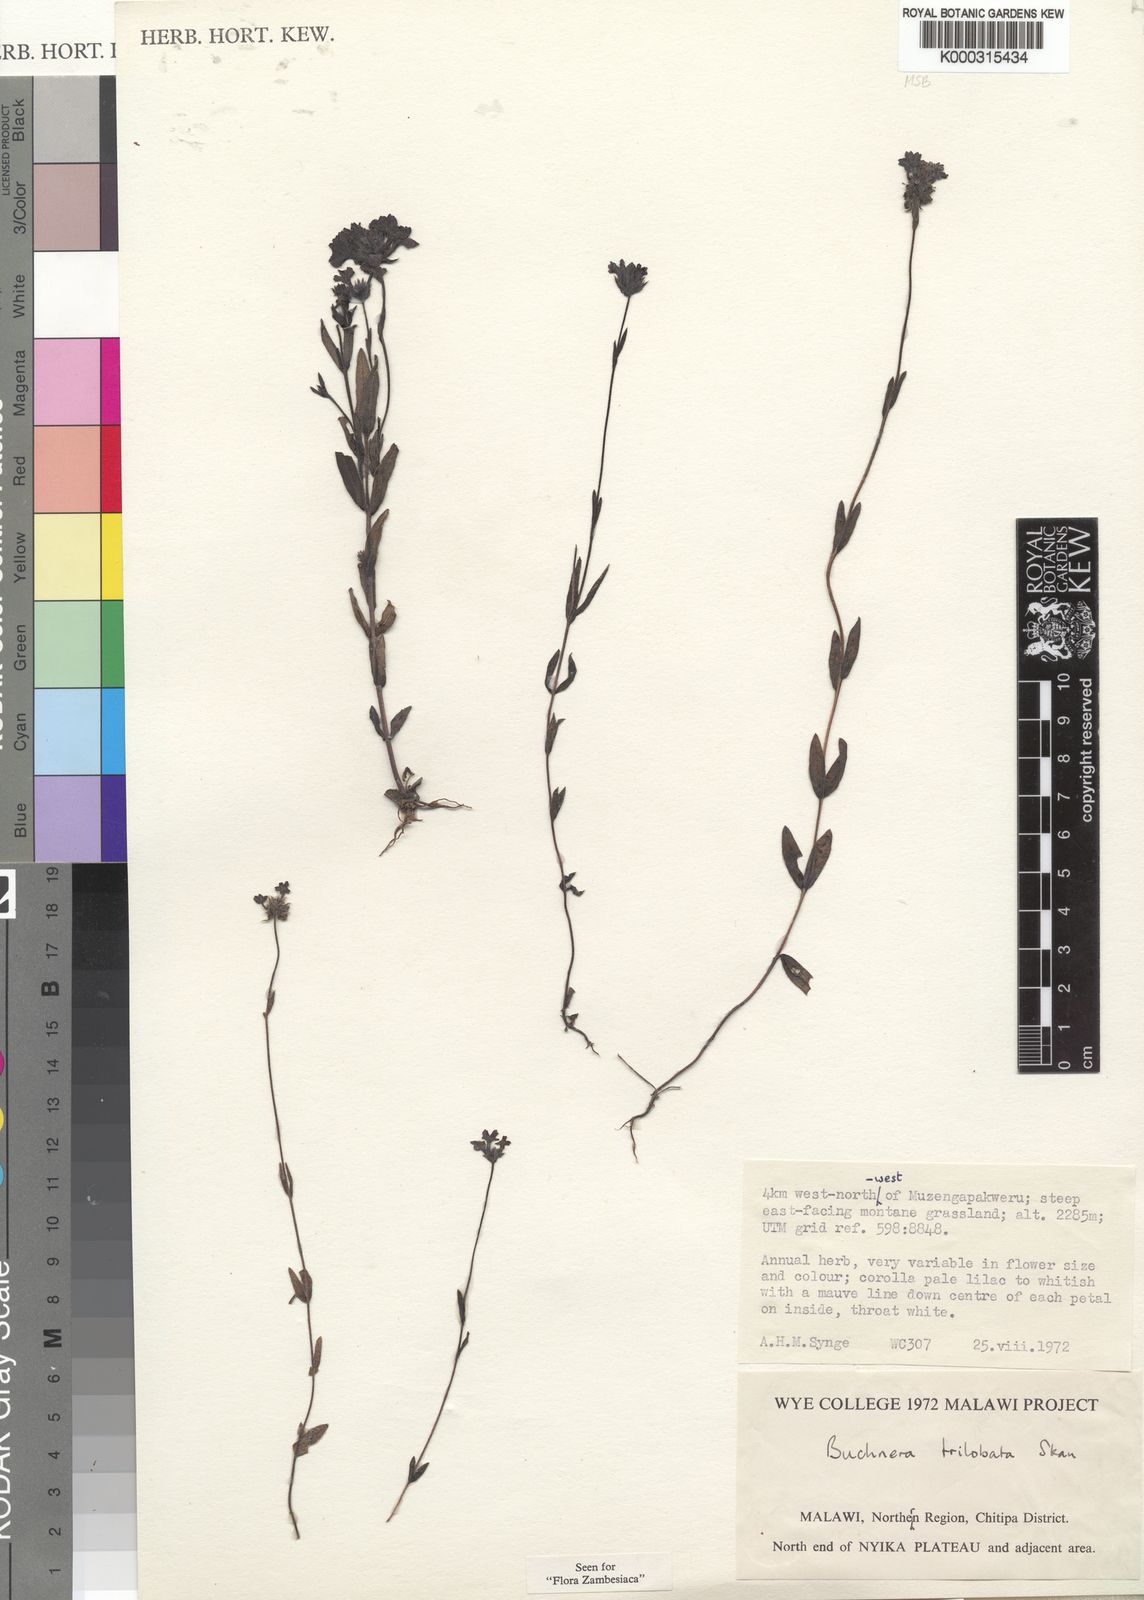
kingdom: Plantae
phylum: Tracheophyta
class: Magnoliopsida
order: Lamiales
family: Orobanchaceae
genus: Buchnera
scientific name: Buchnera trilobata
